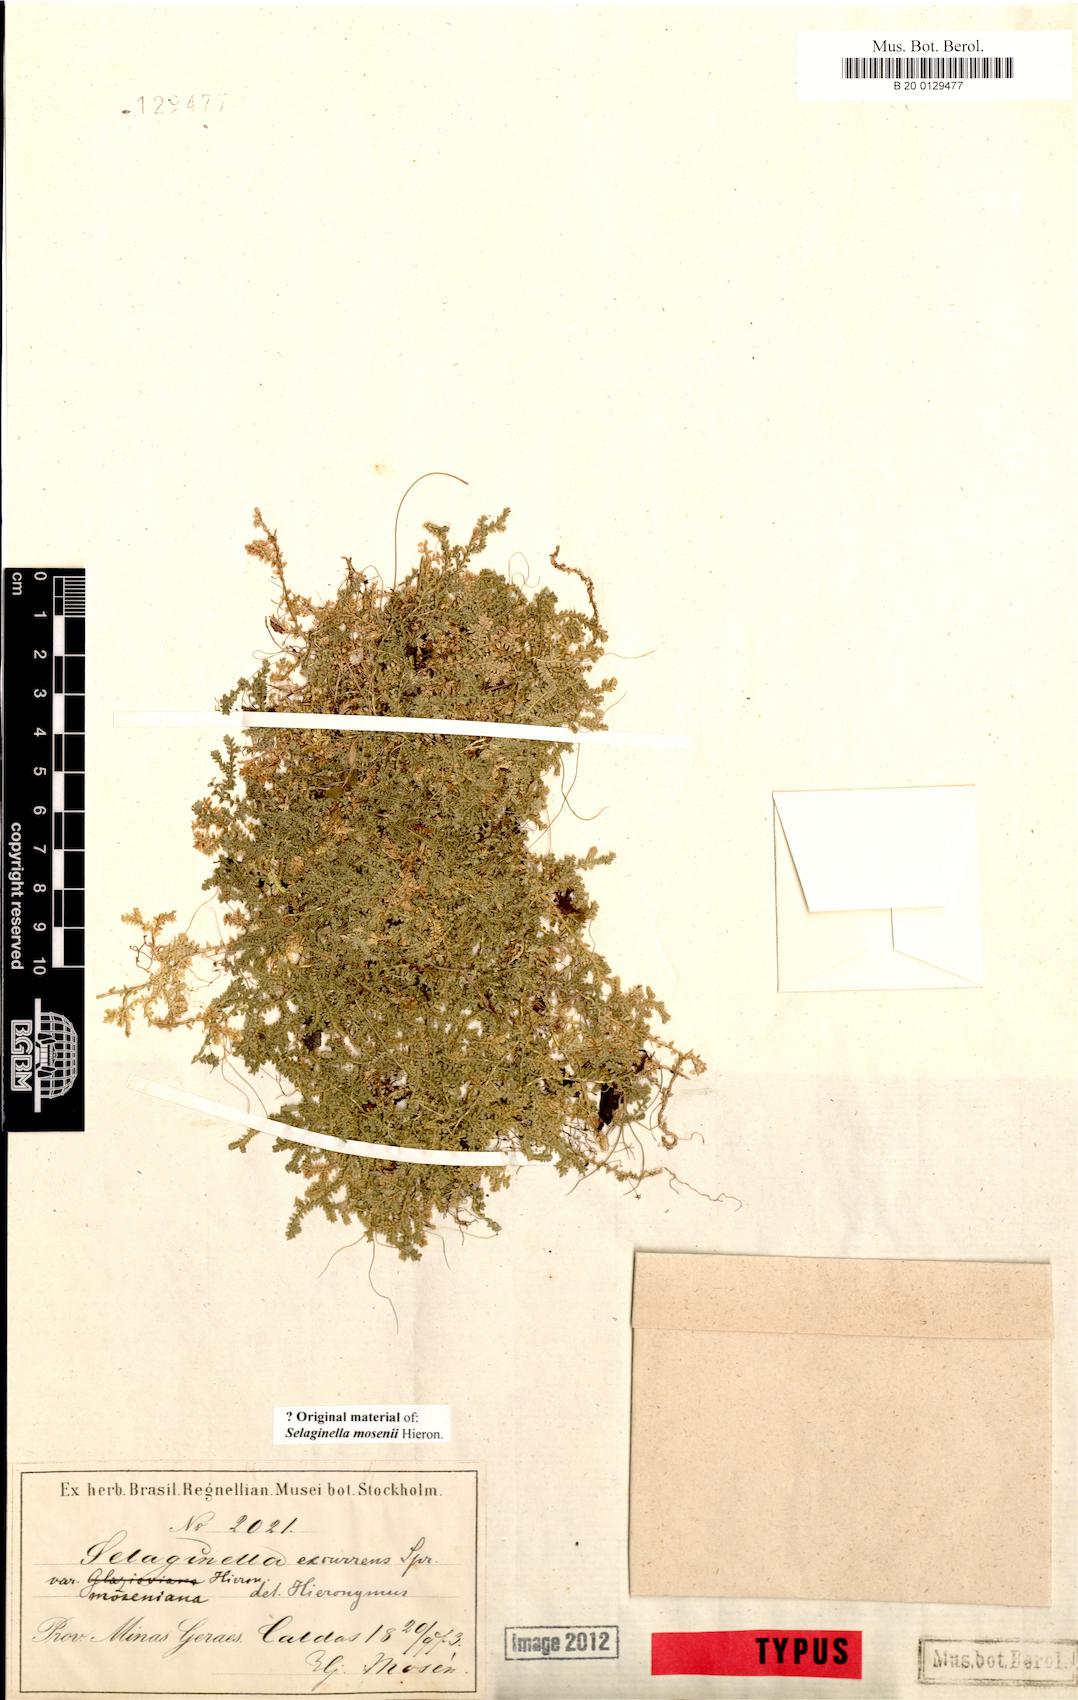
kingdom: Plantae
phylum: Tracheophyta
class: Lycopodiopsida
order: Selaginellales
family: Selaginellaceae
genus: Selaginella
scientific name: Selaginella marginata
